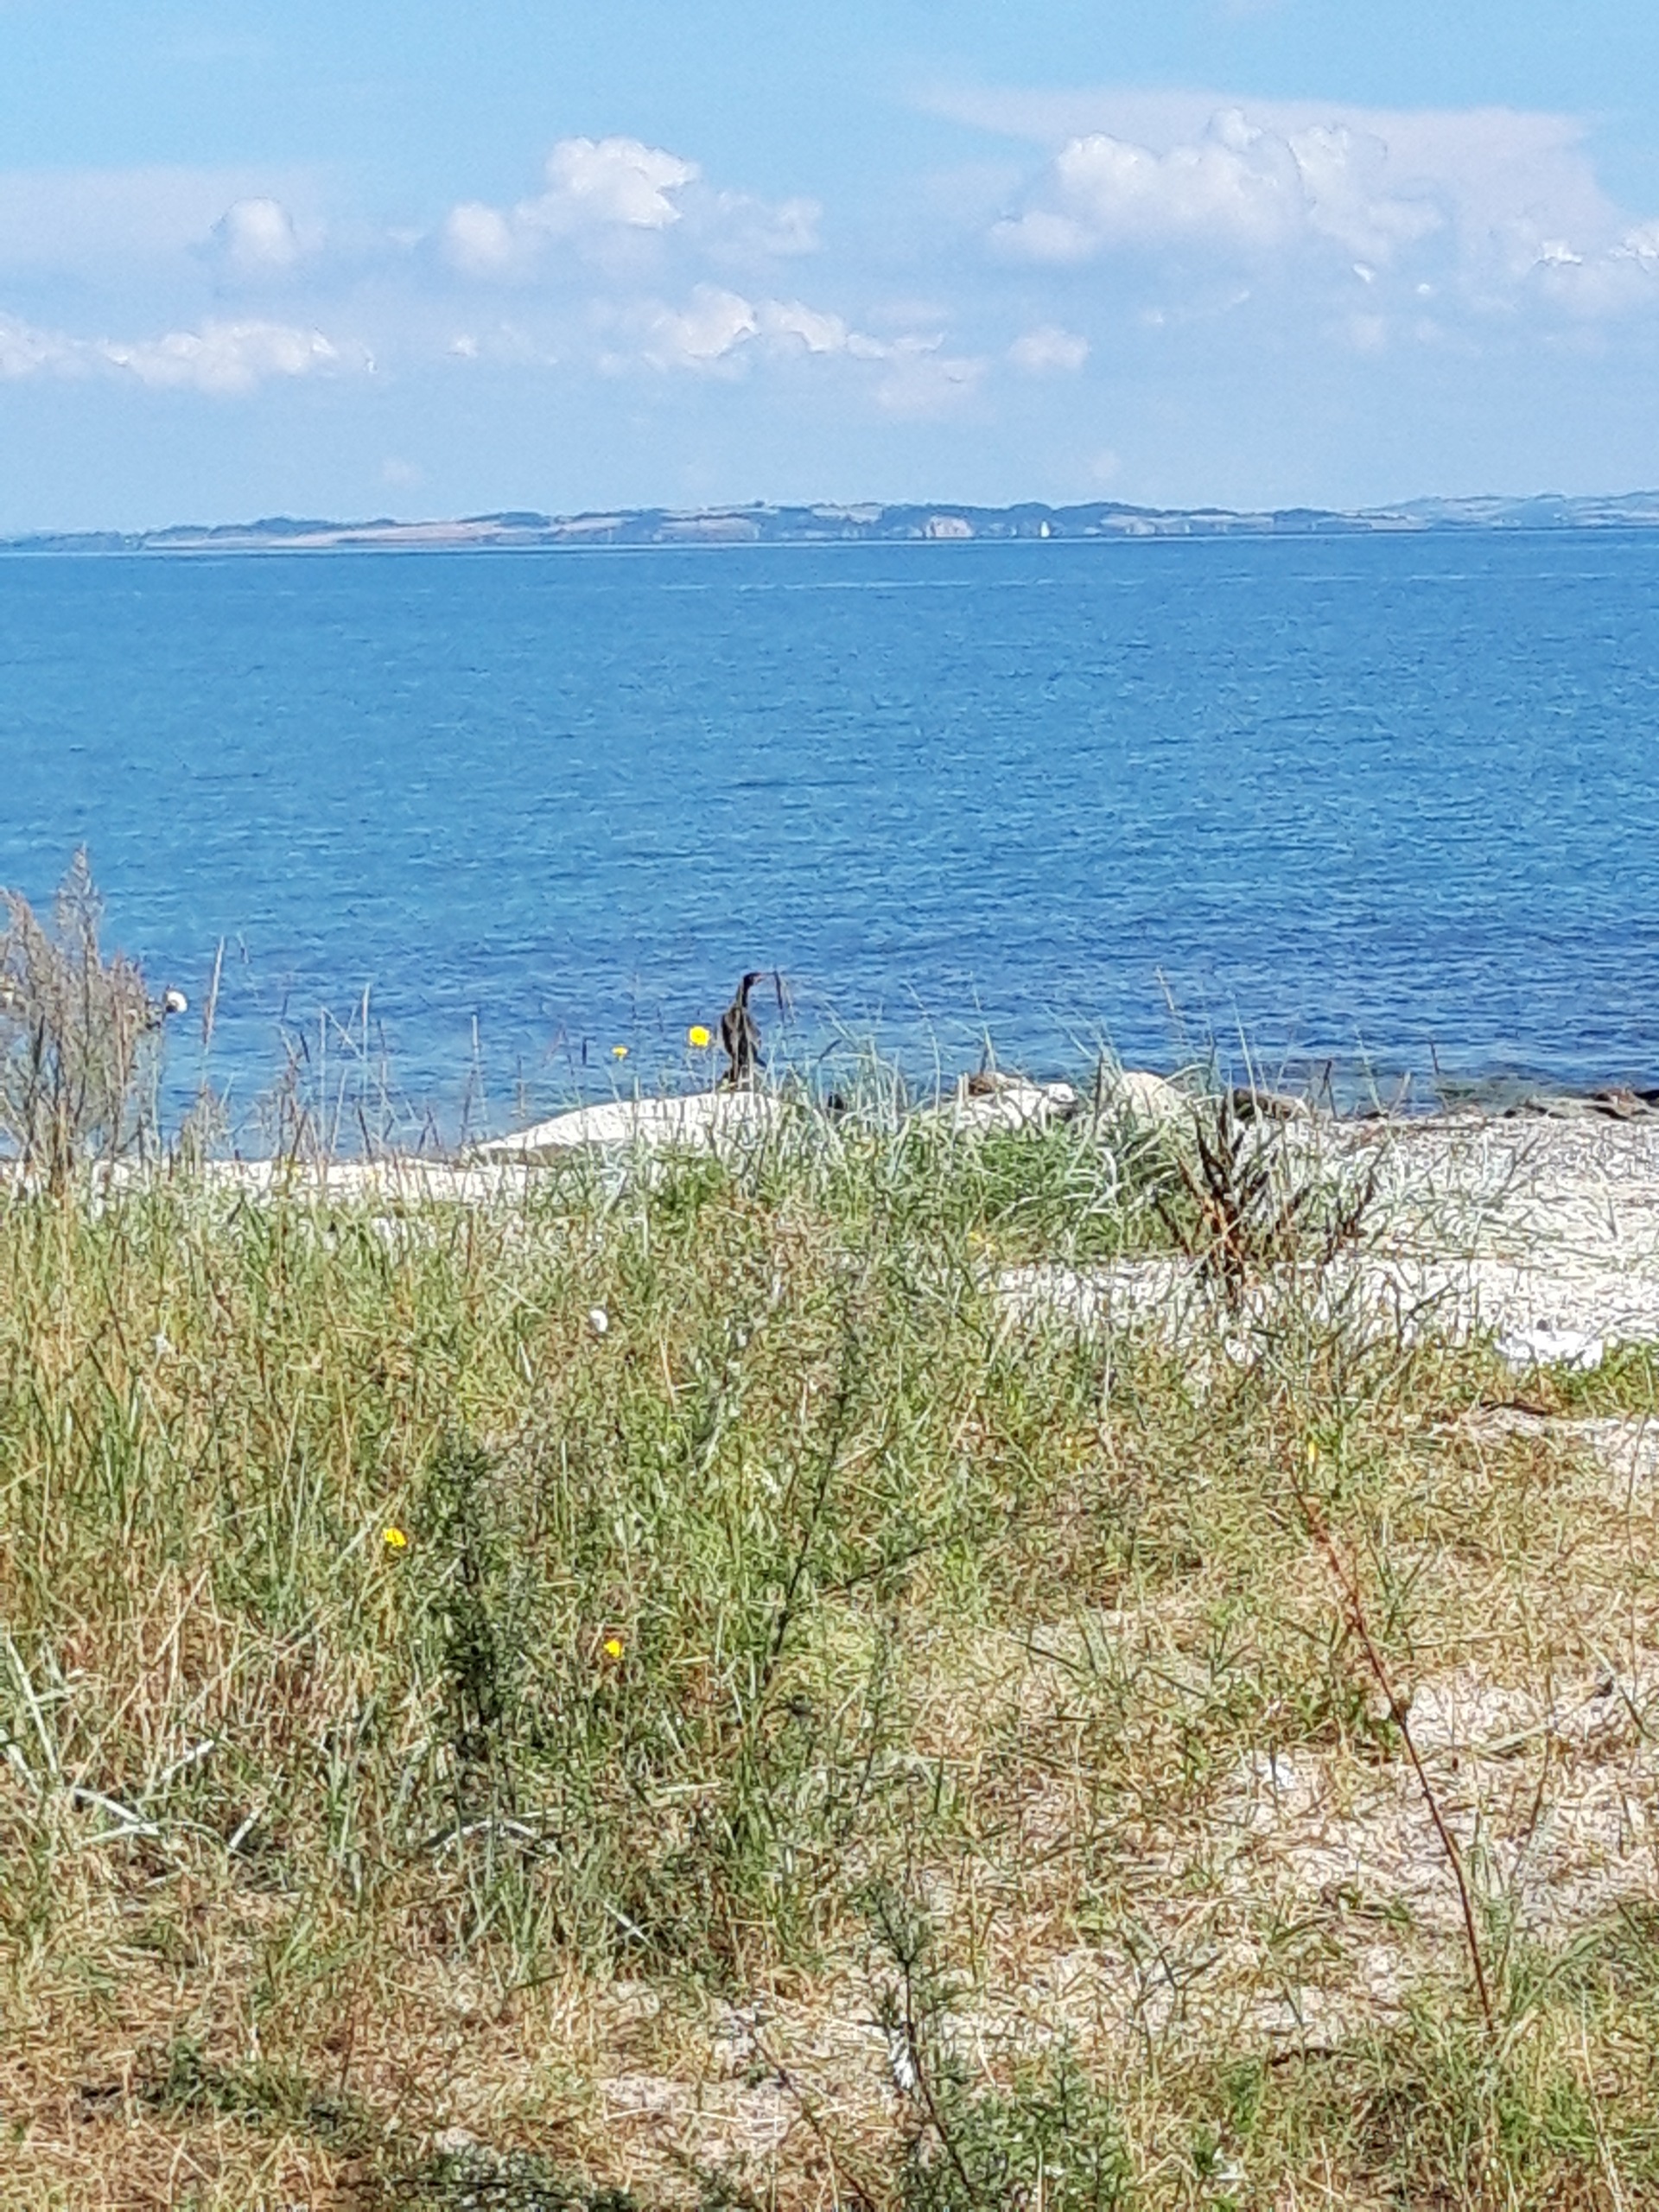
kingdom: Animalia
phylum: Chordata
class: Aves
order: Suliformes
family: Phalacrocoracidae
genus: Phalacrocorax
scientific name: Phalacrocorax carbo
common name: Skarv
